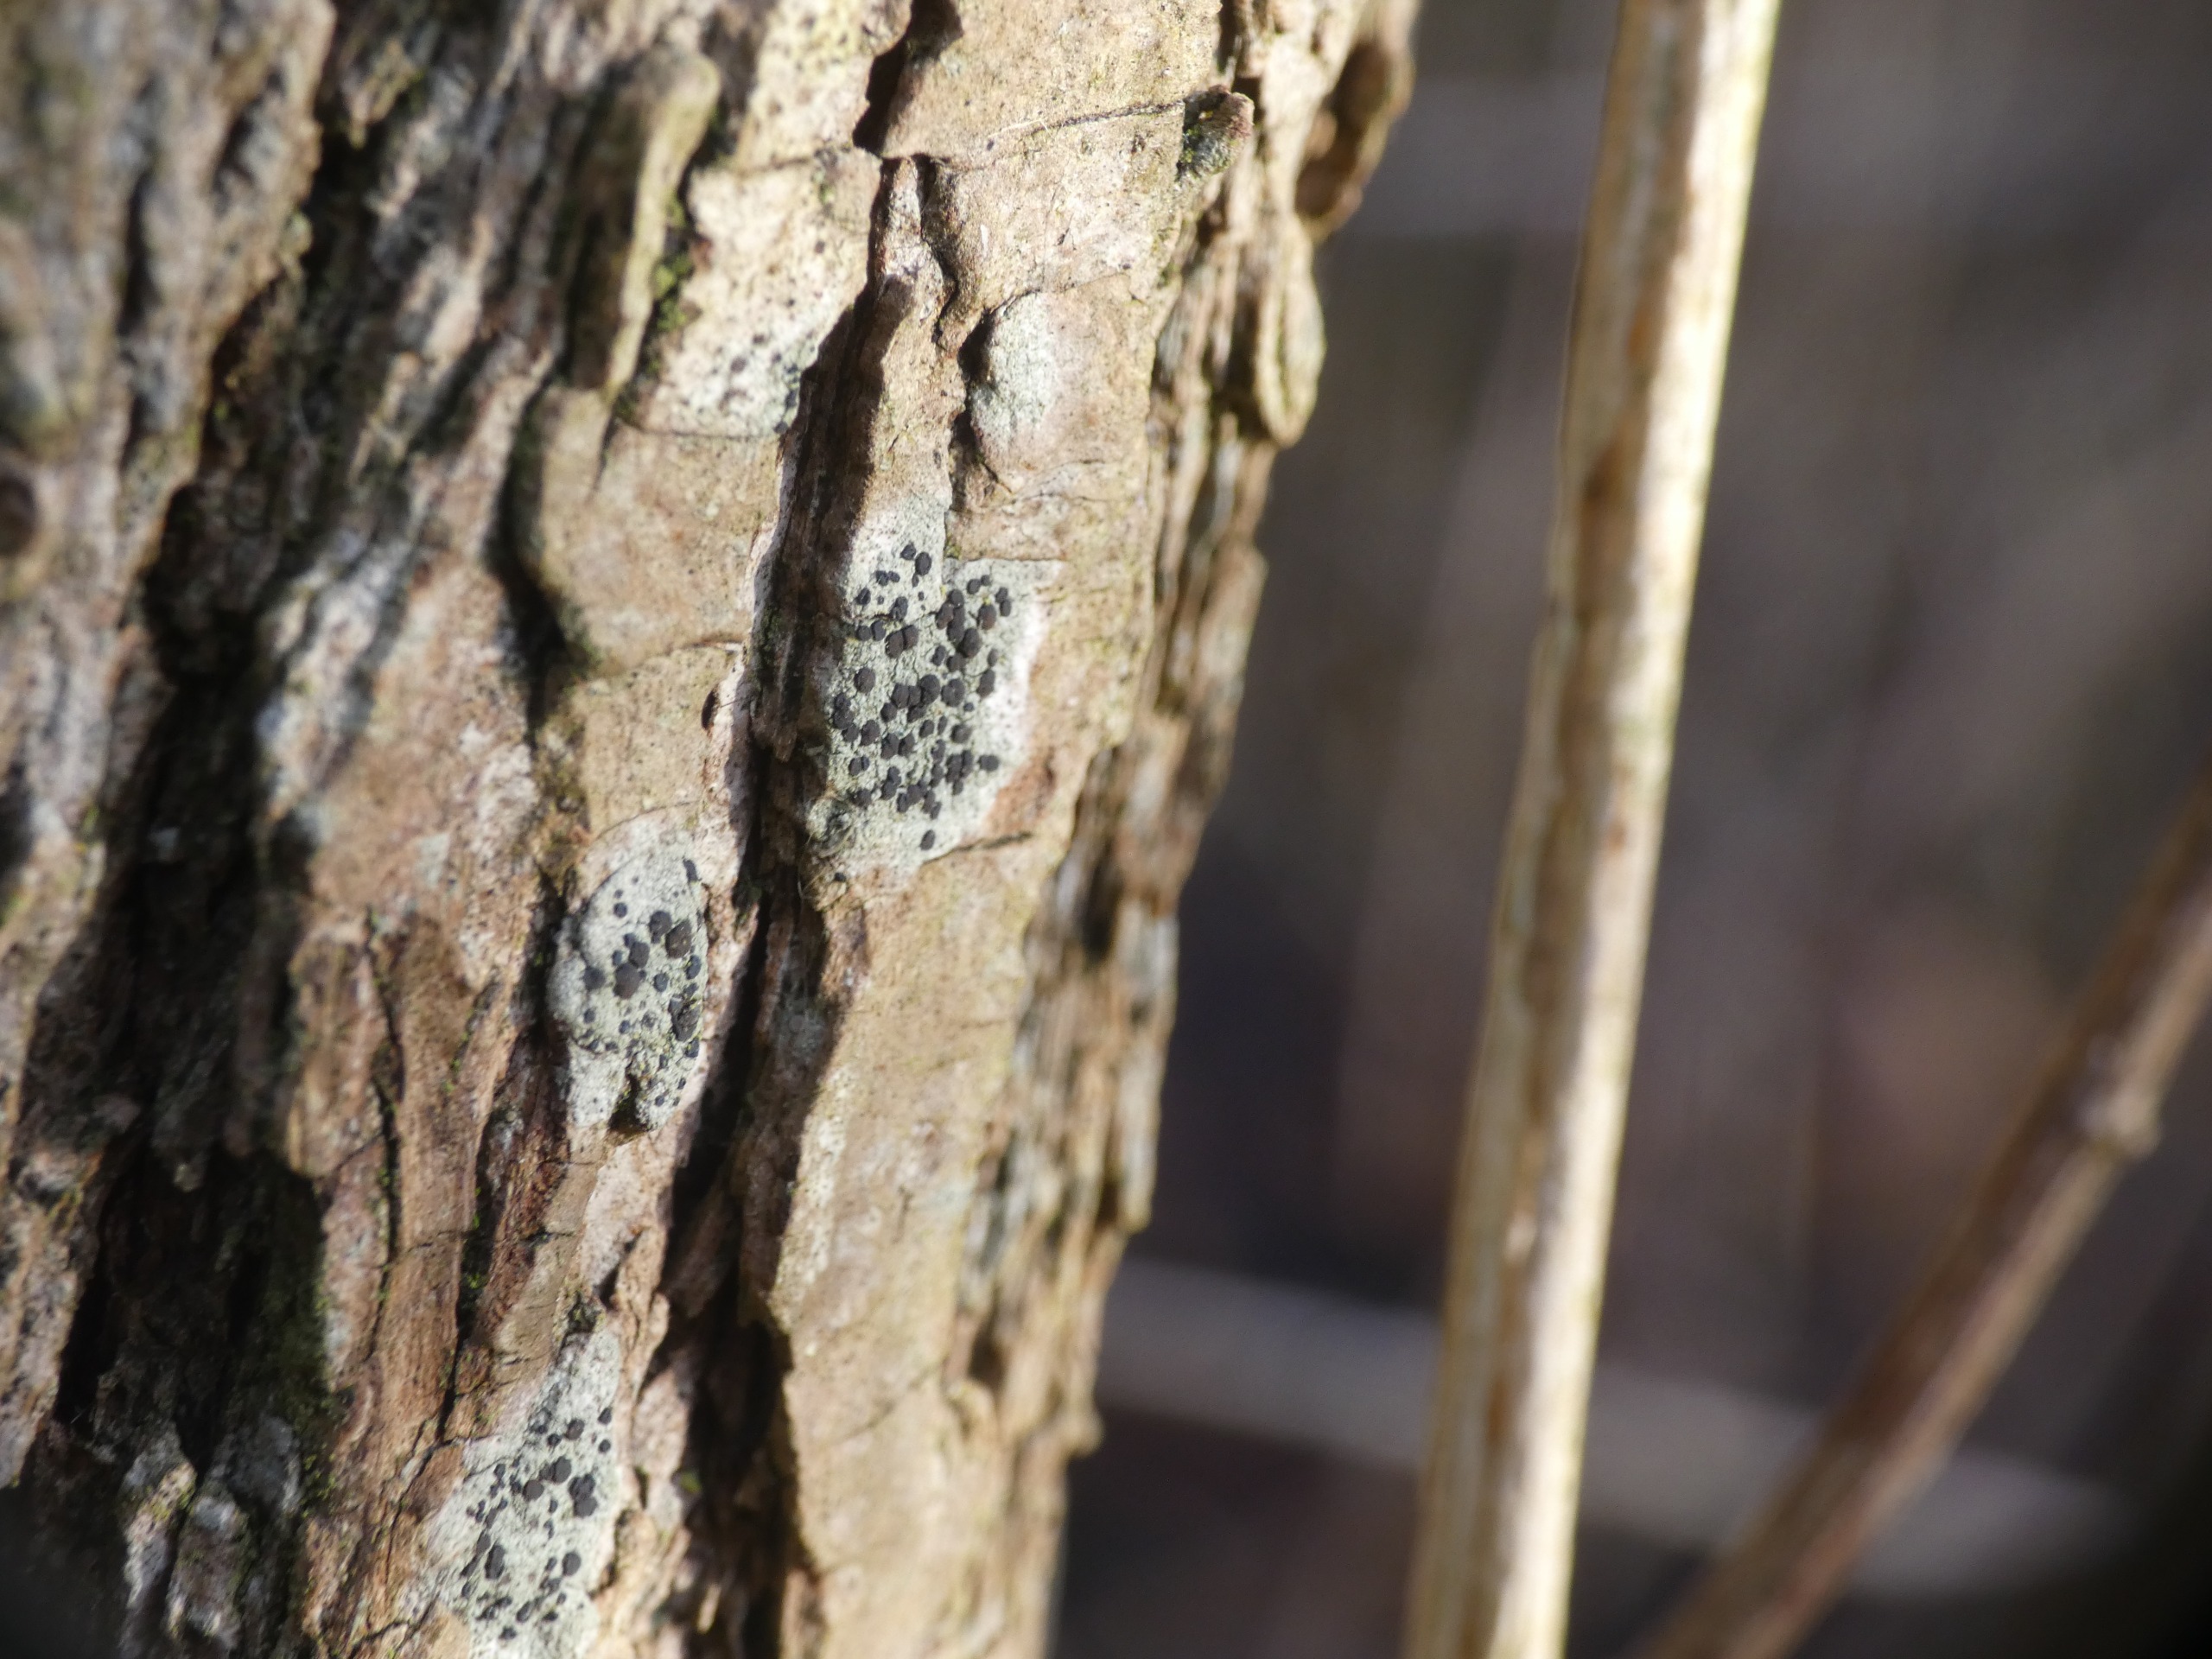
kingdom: Fungi
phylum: Ascomycota
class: Lecanoromycetes
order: Lecanorales
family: Lecanoraceae
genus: Lecidella
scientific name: Lecidella elaeochroma
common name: Grågrøn skivelav
